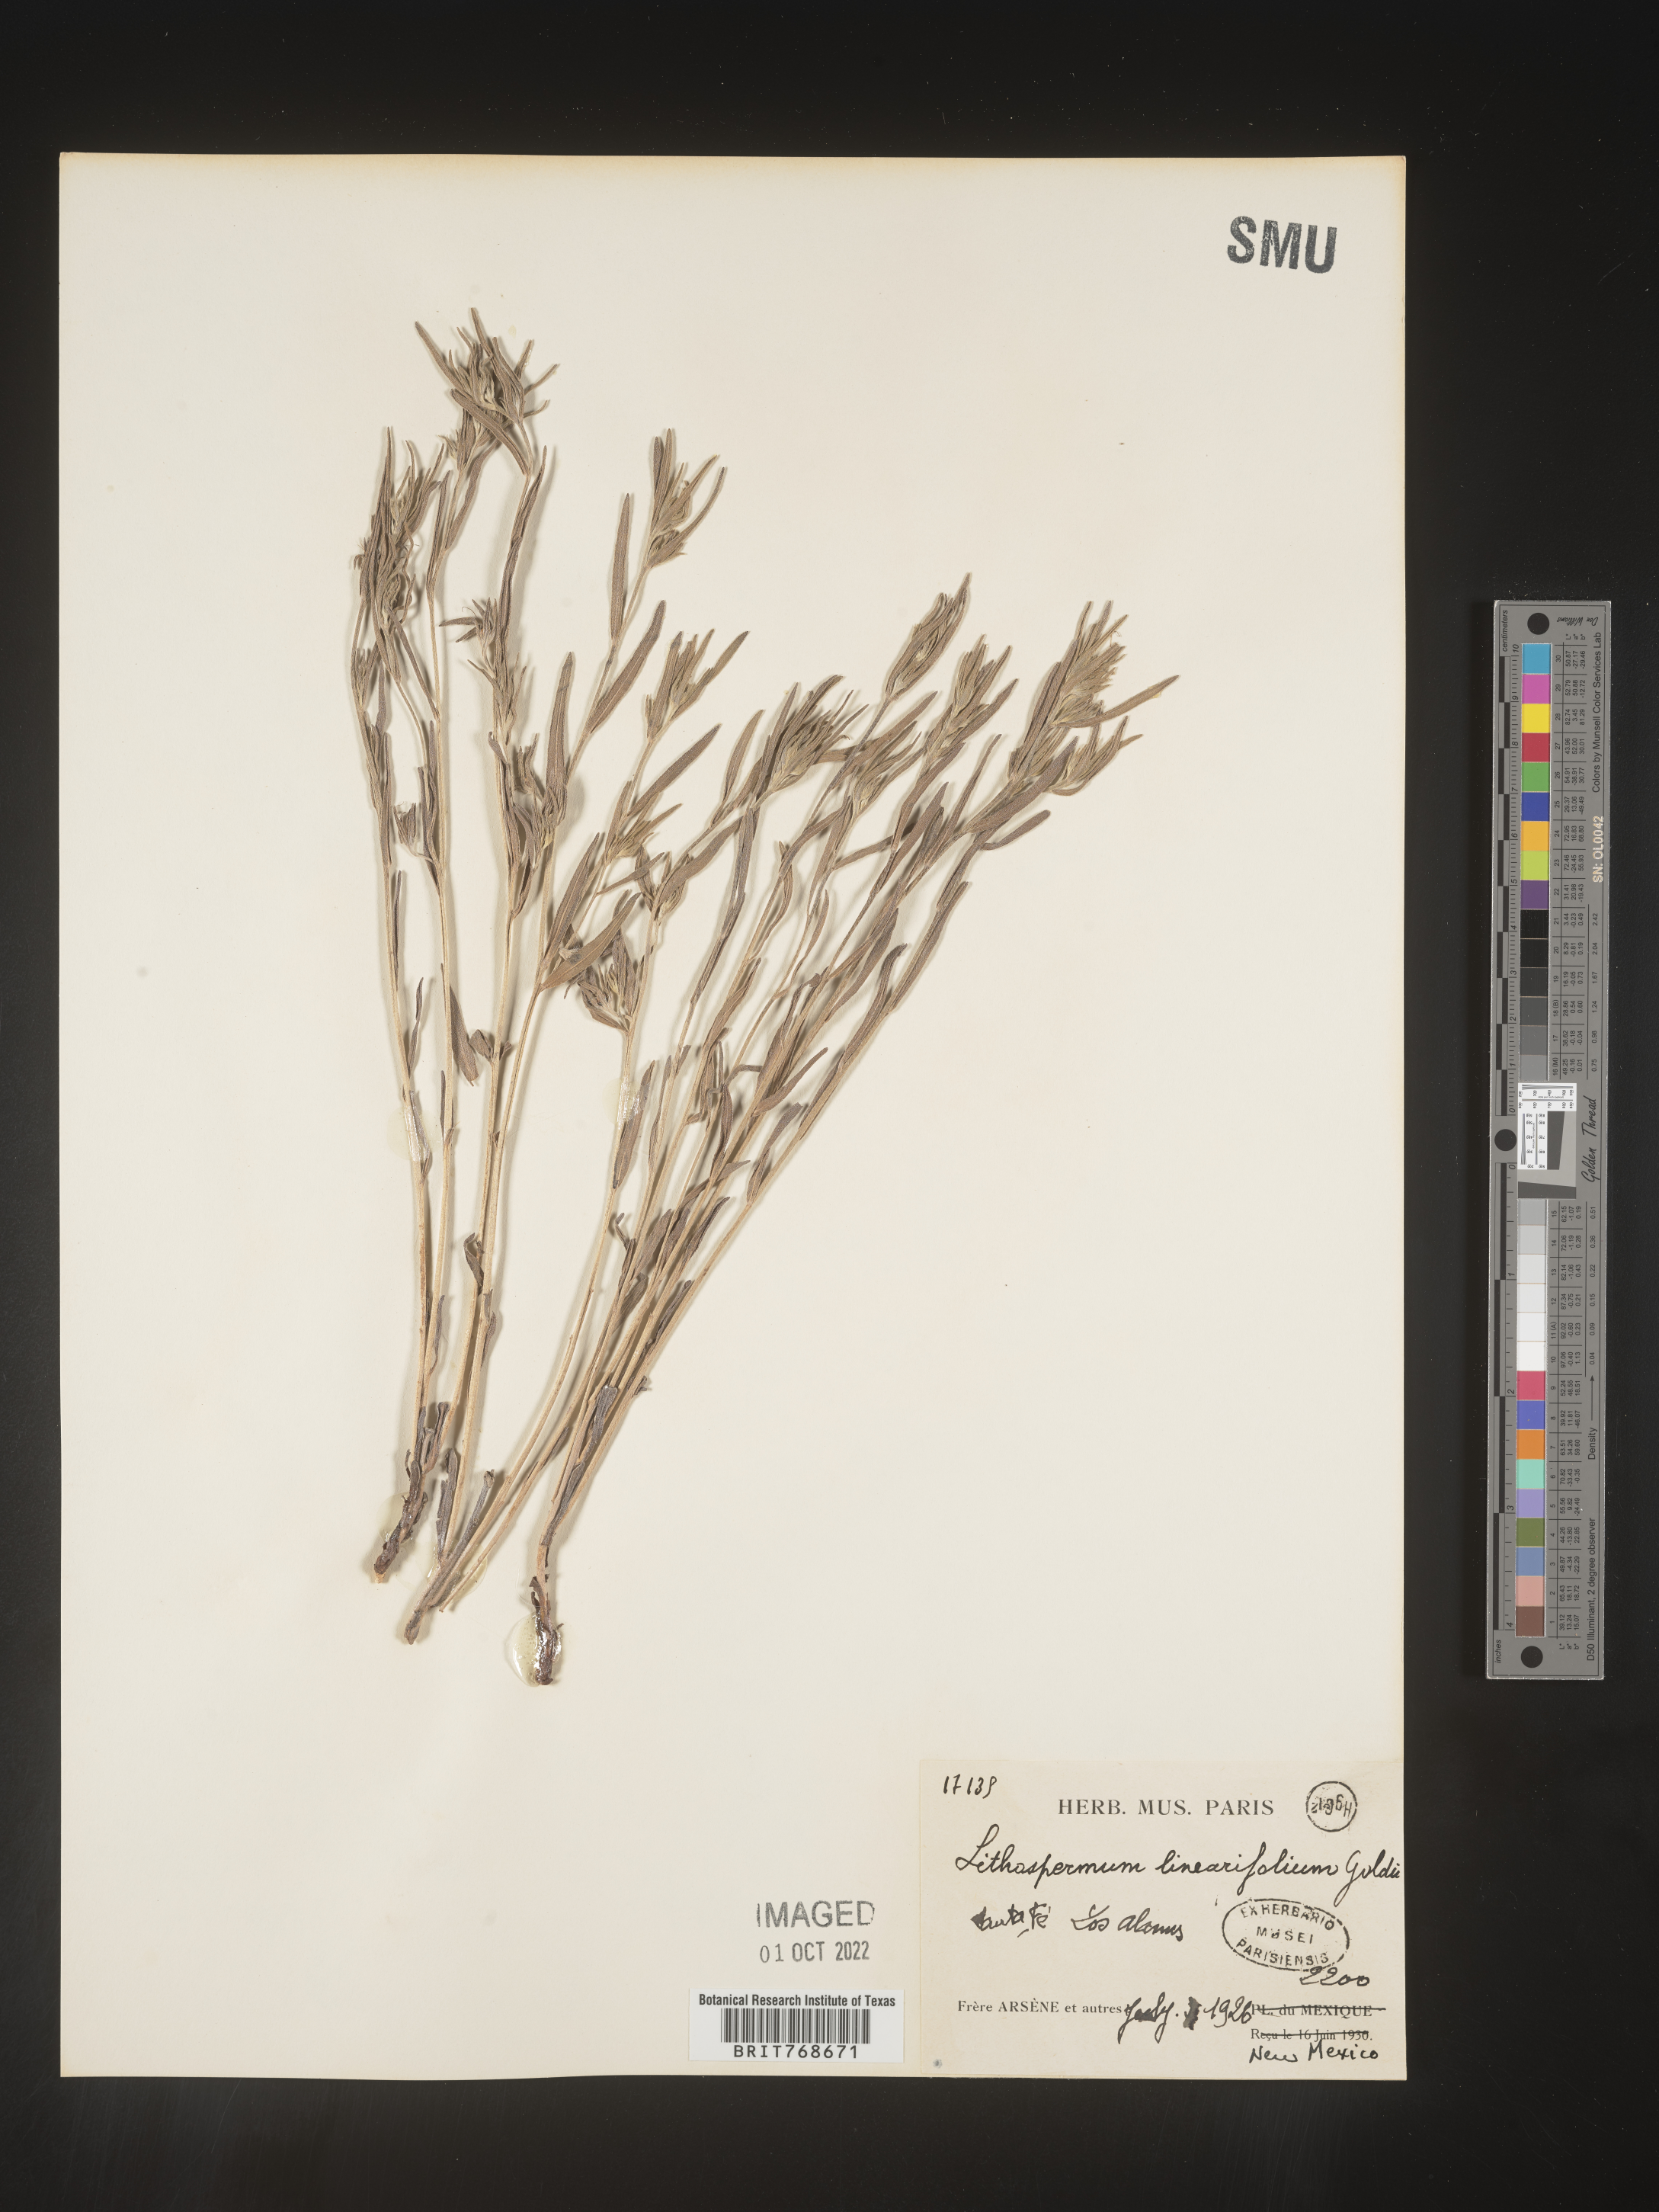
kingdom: Plantae
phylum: Tracheophyta
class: Magnoliopsida
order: Boraginales
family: Boraginaceae
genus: Lithospermum
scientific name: Lithospermum incisum
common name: Fringed gromwell
